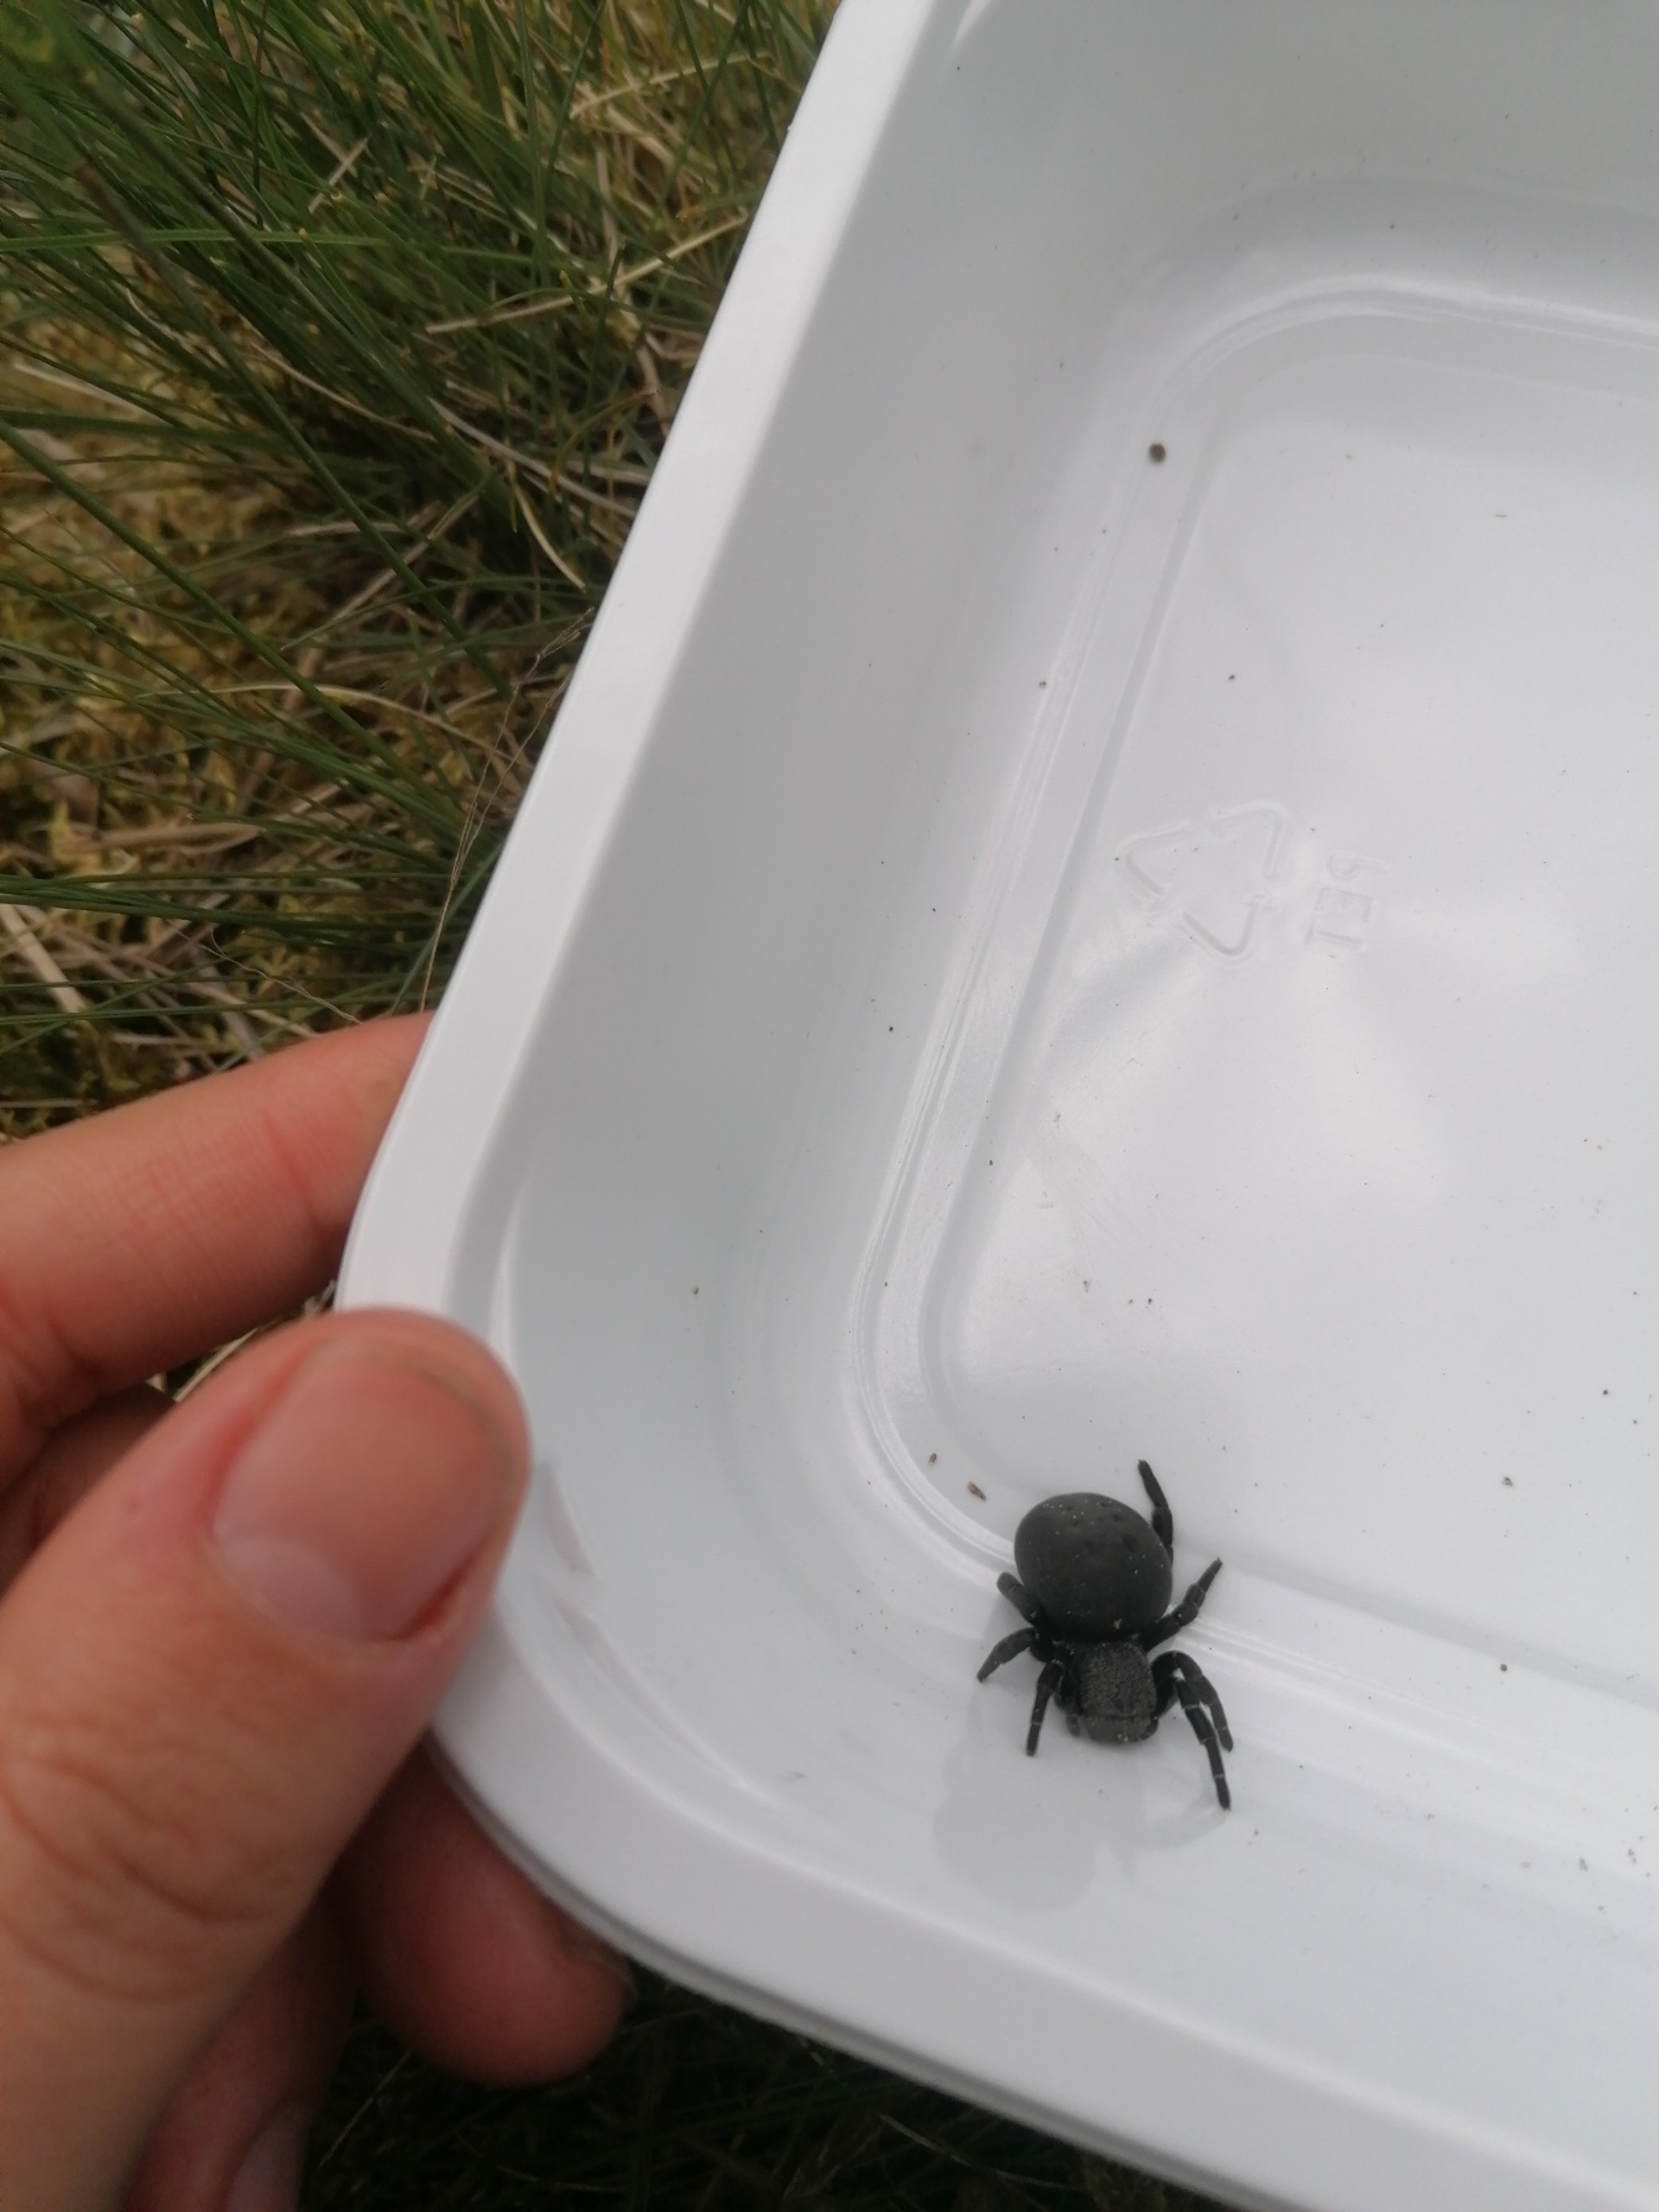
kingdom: Animalia
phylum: Arthropoda
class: Arachnida
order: Araneae
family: Eresidae
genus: Eresus
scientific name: Eresus sandaliatus
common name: Mariehøneedderkop
